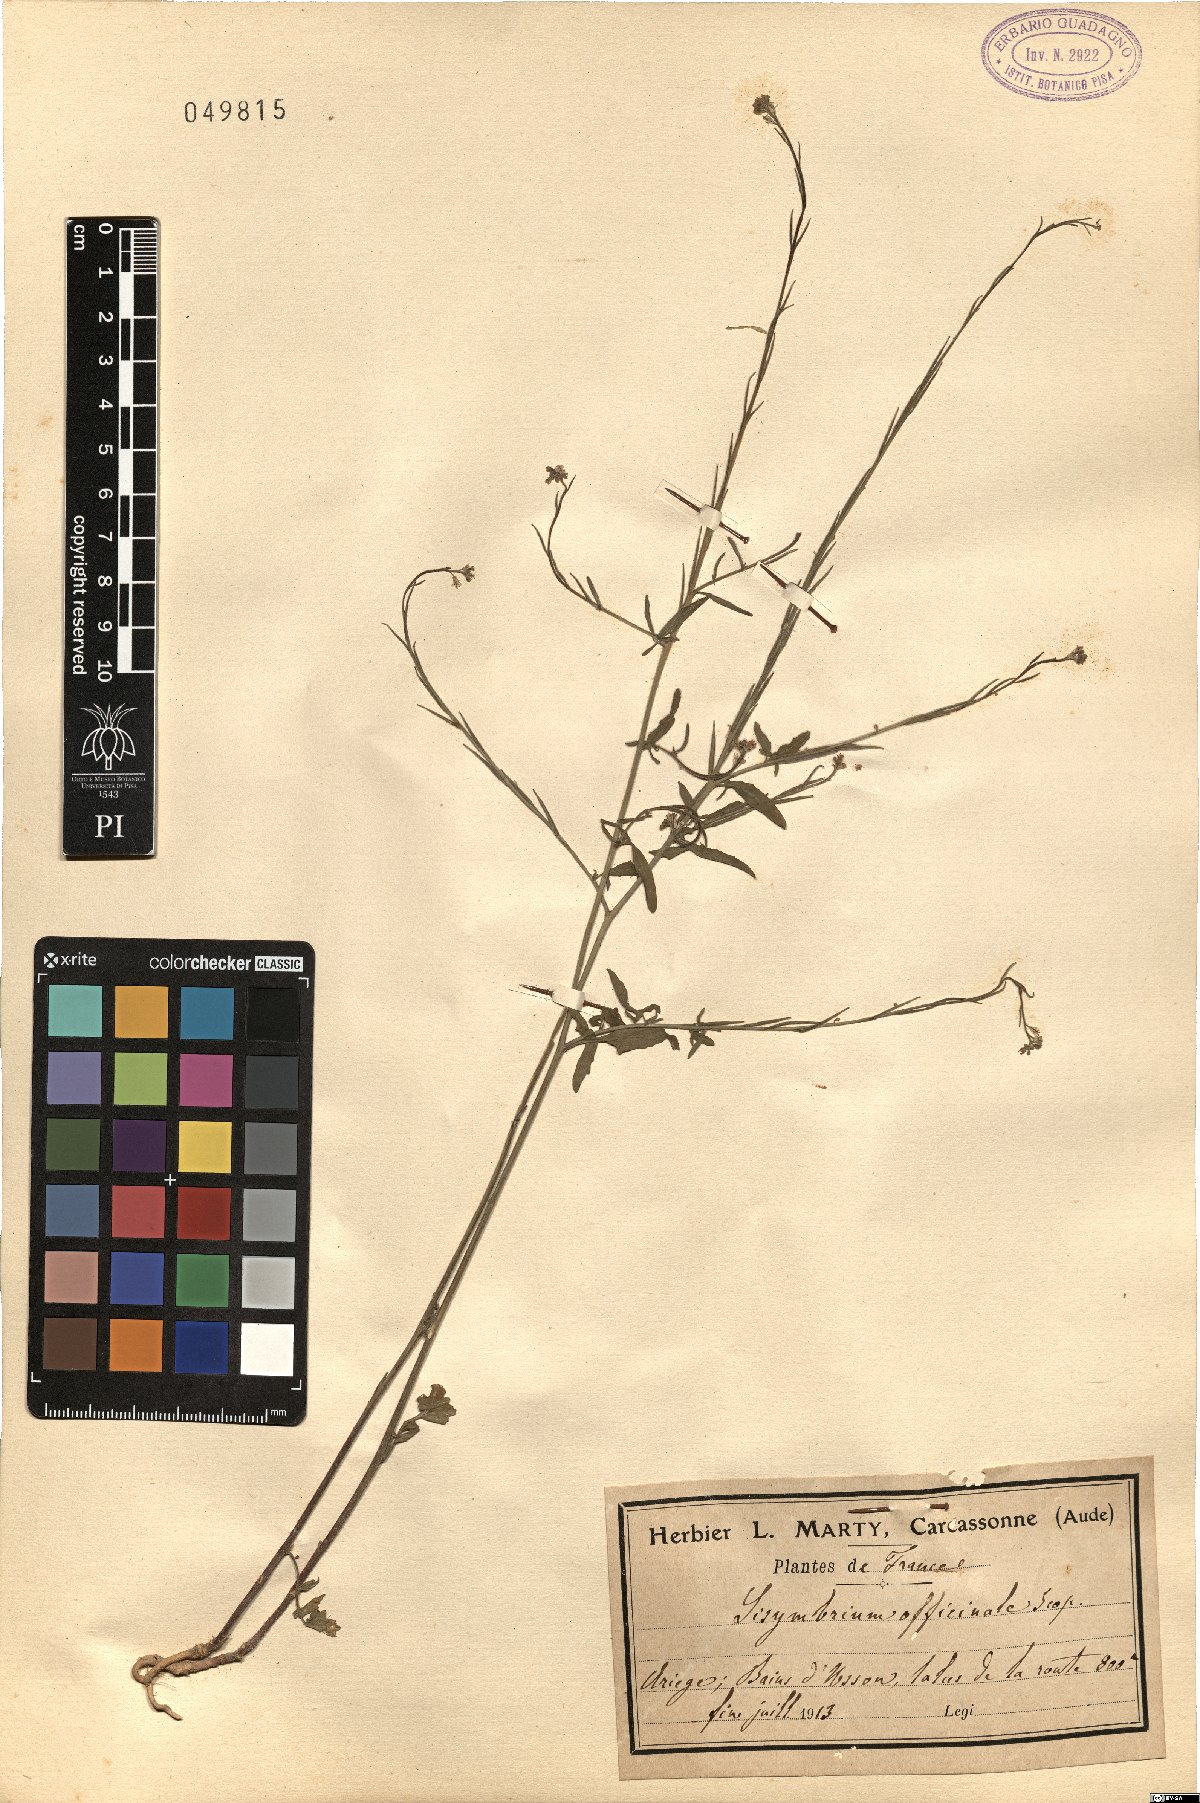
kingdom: Plantae
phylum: Tracheophyta
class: Magnoliopsida
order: Brassicales
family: Brassicaceae
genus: Sisymbrium
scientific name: Sisymbrium officinale
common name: Hedge mustard
